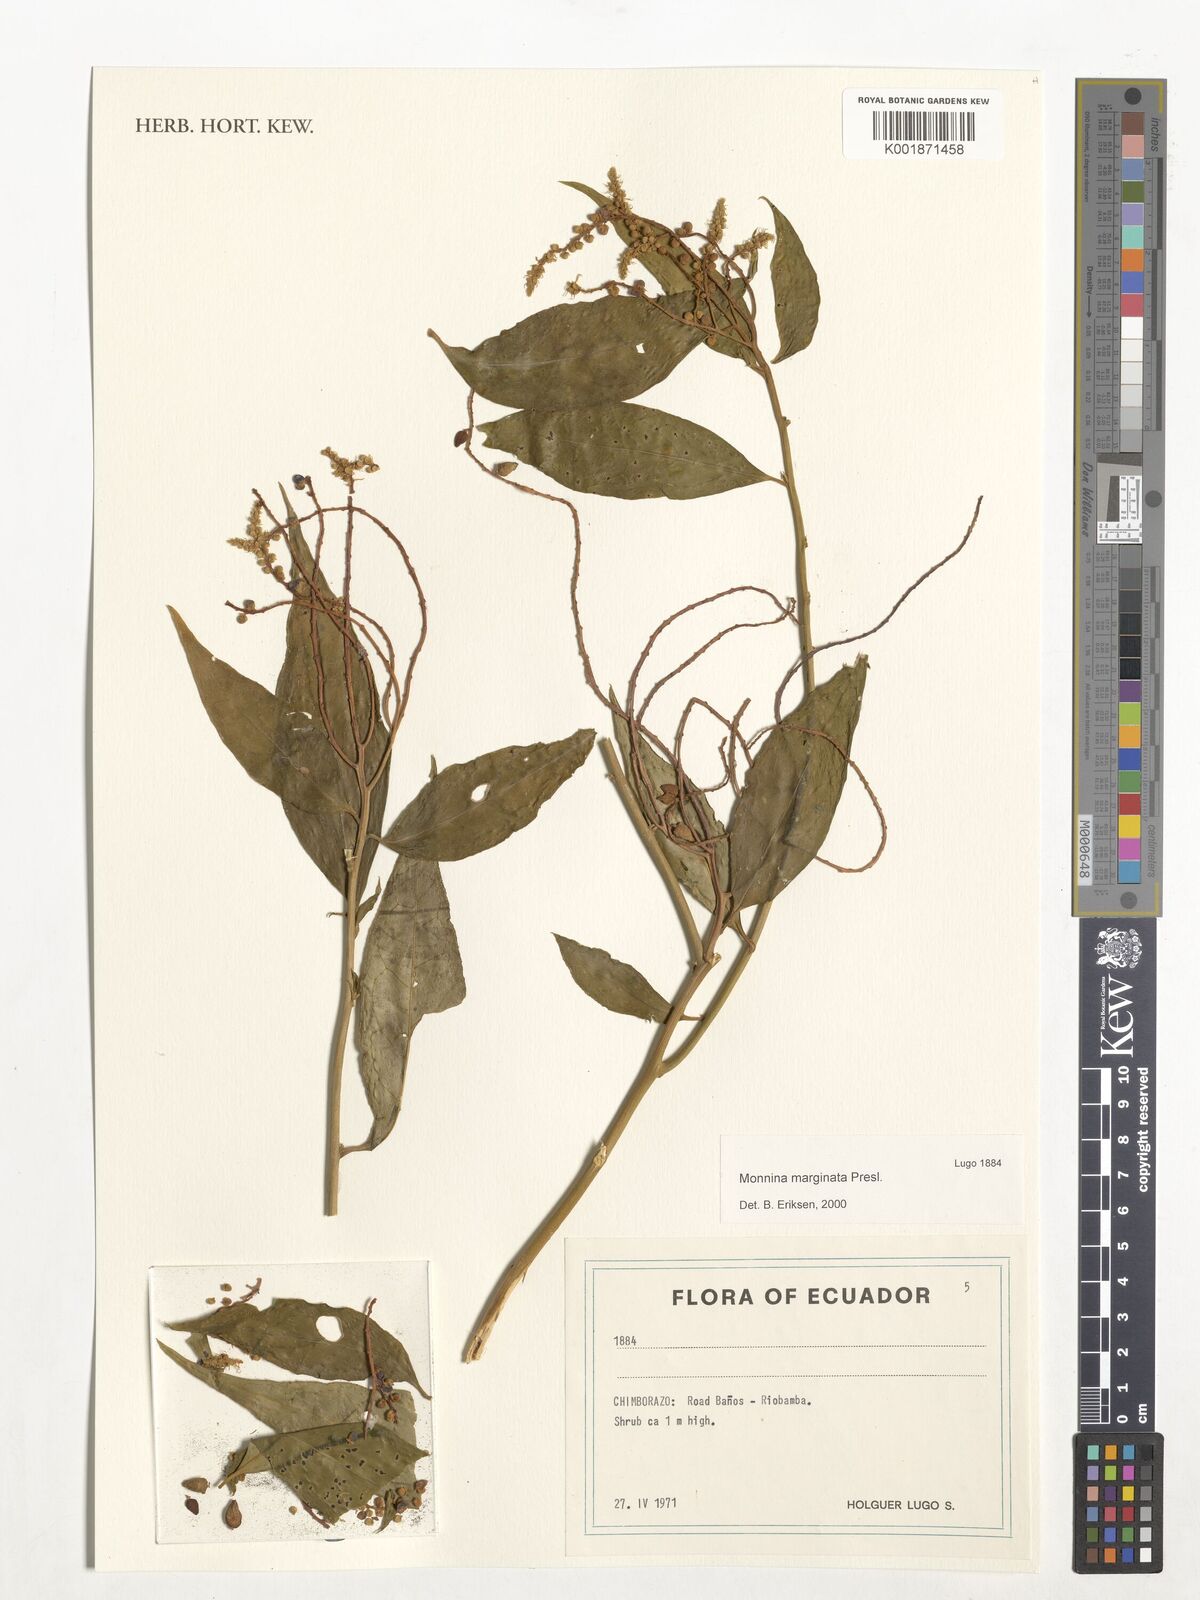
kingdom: Plantae
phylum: Tracheophyta
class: Magnoliopsida
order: Fabales
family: Polygalaceae
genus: Monnina
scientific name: Monnina marginata
